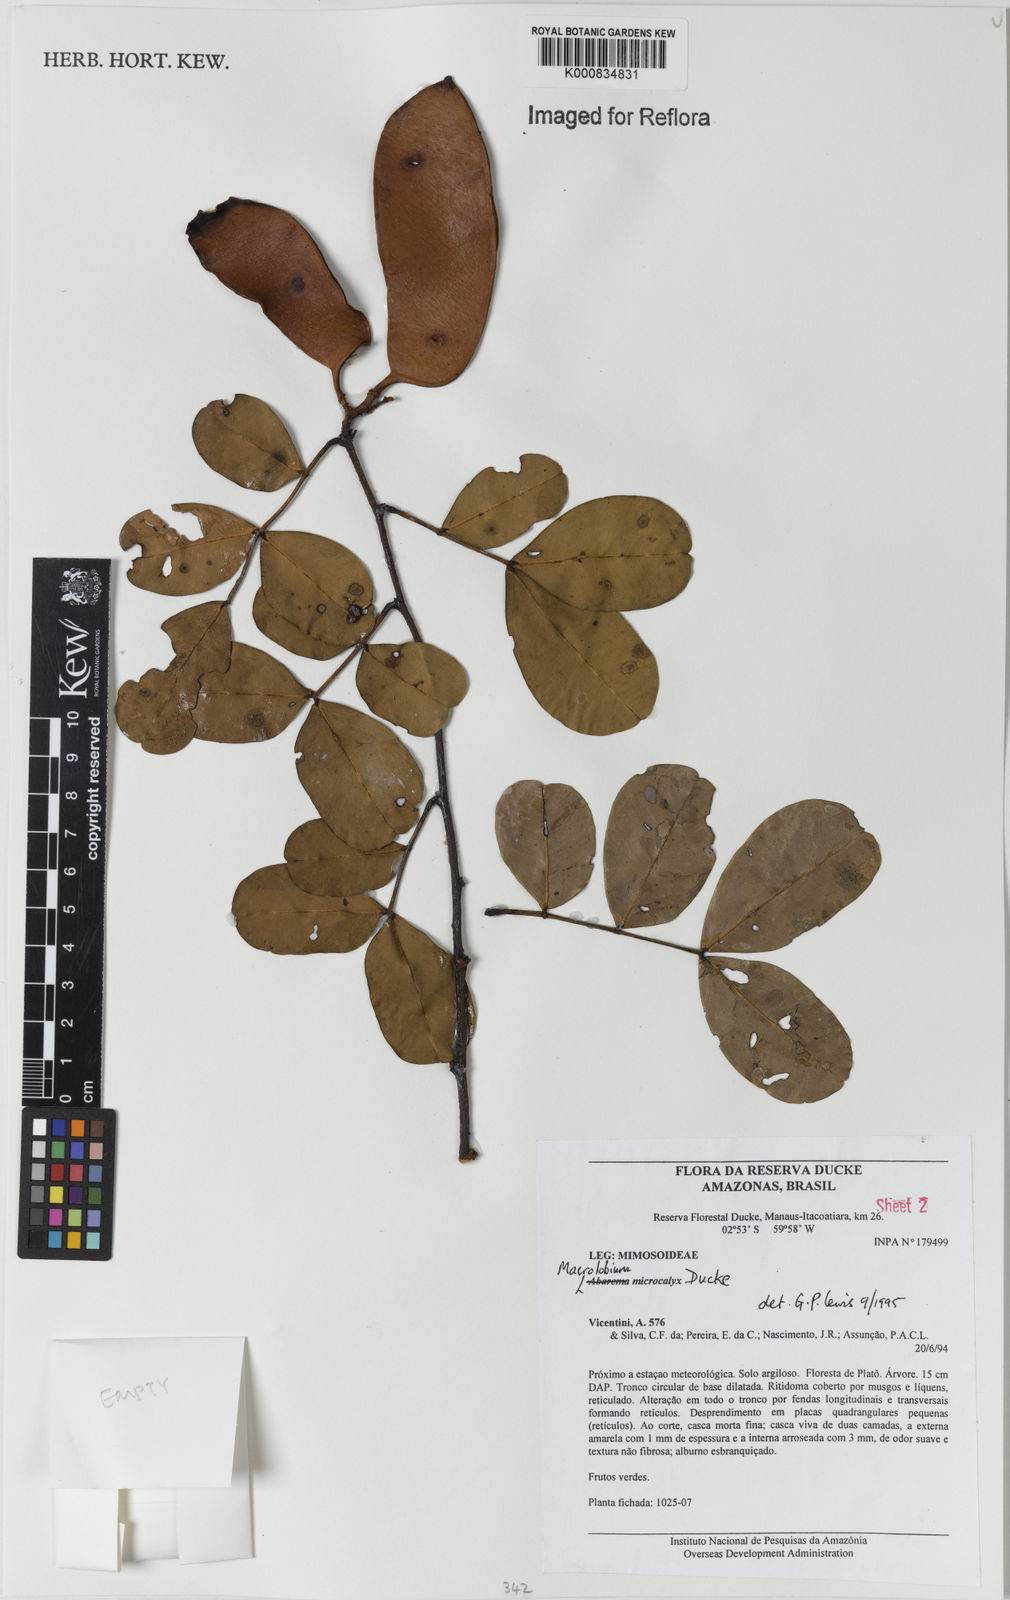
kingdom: Plantae
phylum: Tracheophyta
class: Magnoliopsida
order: Fabales
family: Fabaceae
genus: Macrolobium
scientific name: Macrolobium microcalyx
